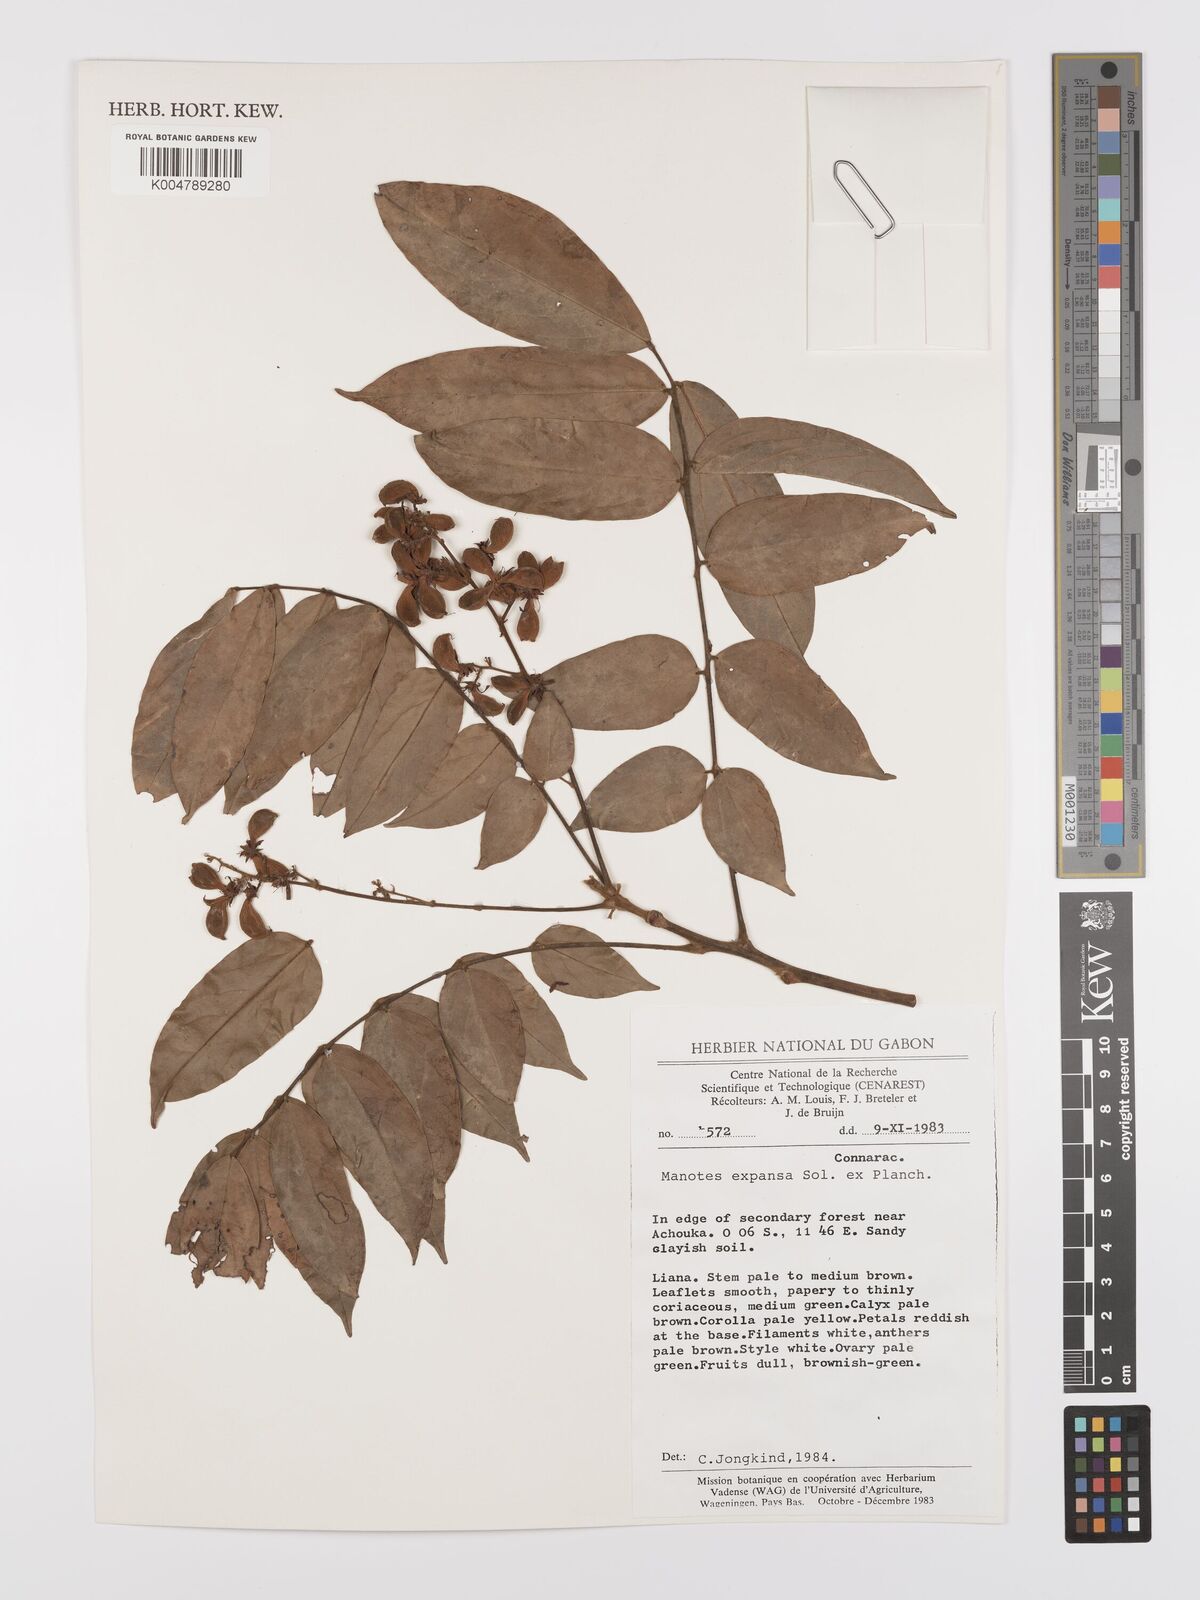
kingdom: Plantae
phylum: Tracheophyta
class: Magnoliopsida
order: Oxalidales
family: Connaraceae
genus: Manotes
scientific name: Manotes expansa
